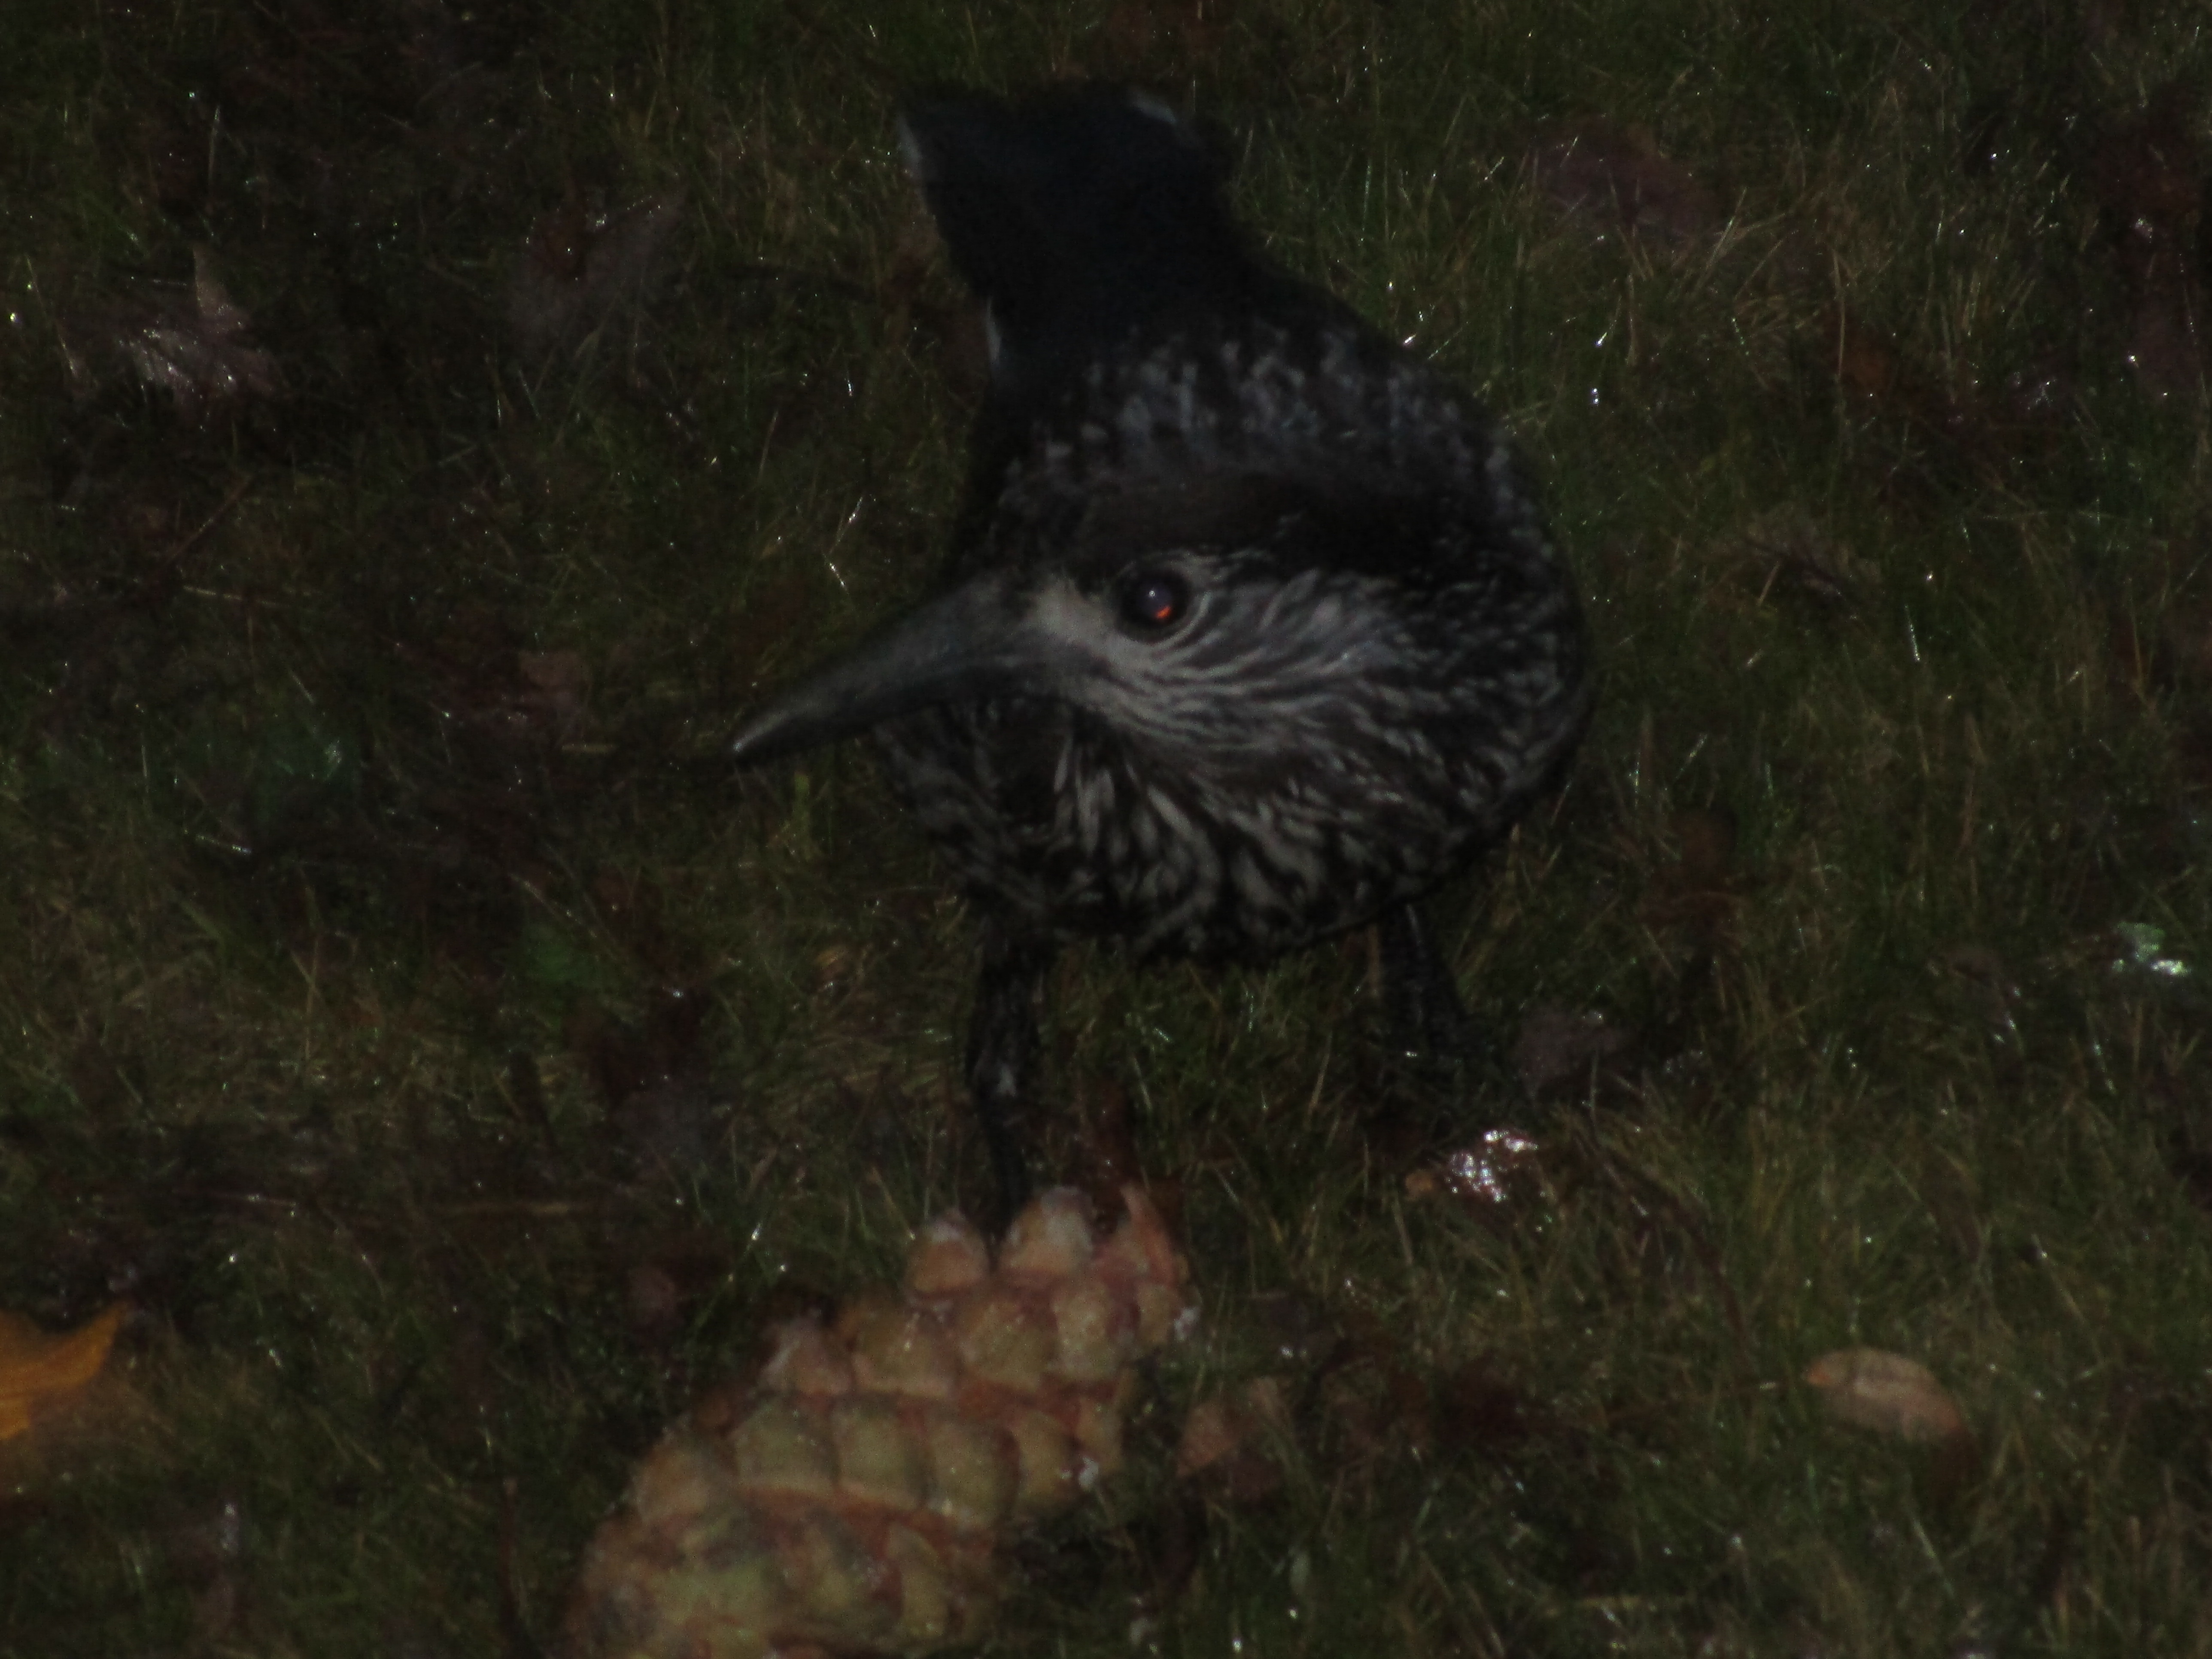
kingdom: Animalia
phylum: Chordata
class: Aves
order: Passeriformes
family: Corvidae
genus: Nucifraga
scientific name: Nucifraga caryocatactes
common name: Spotted nutcracker
